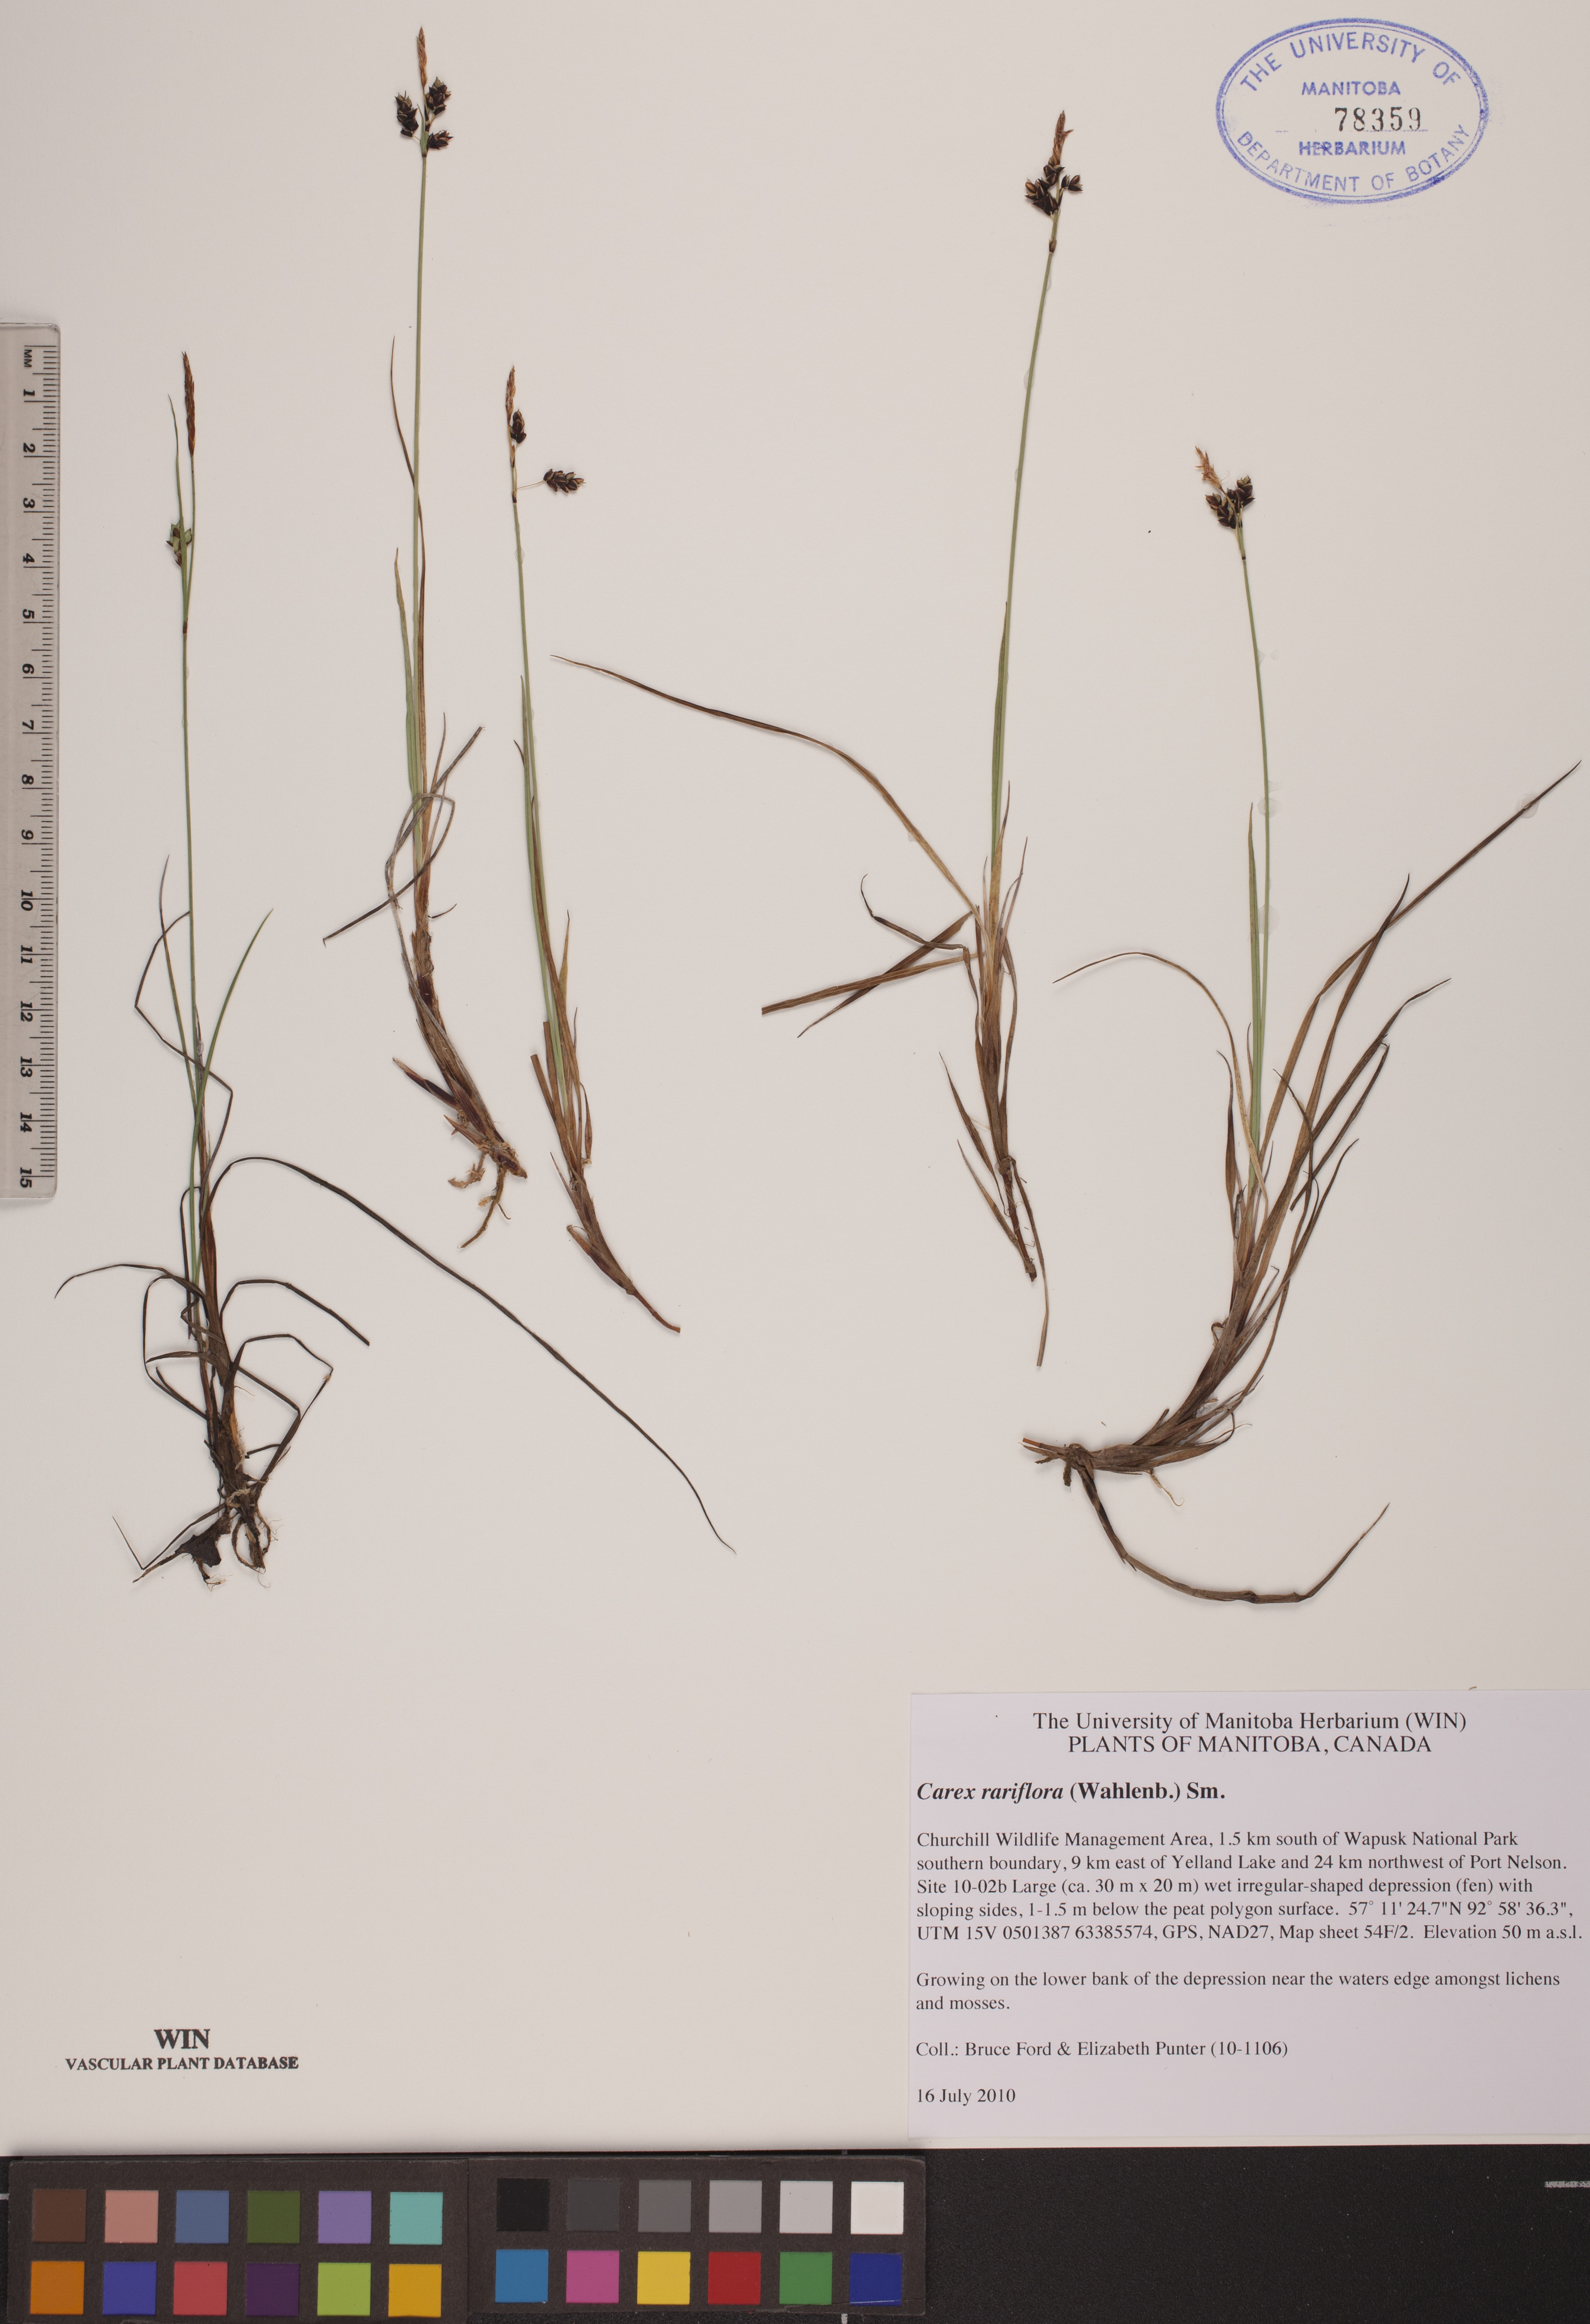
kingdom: Plantae
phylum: Tracheophyta
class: Liliopsida
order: Poales
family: Cyperaceae
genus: Carex
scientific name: Carex rariflora
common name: Loose-flowered alpine sedge
